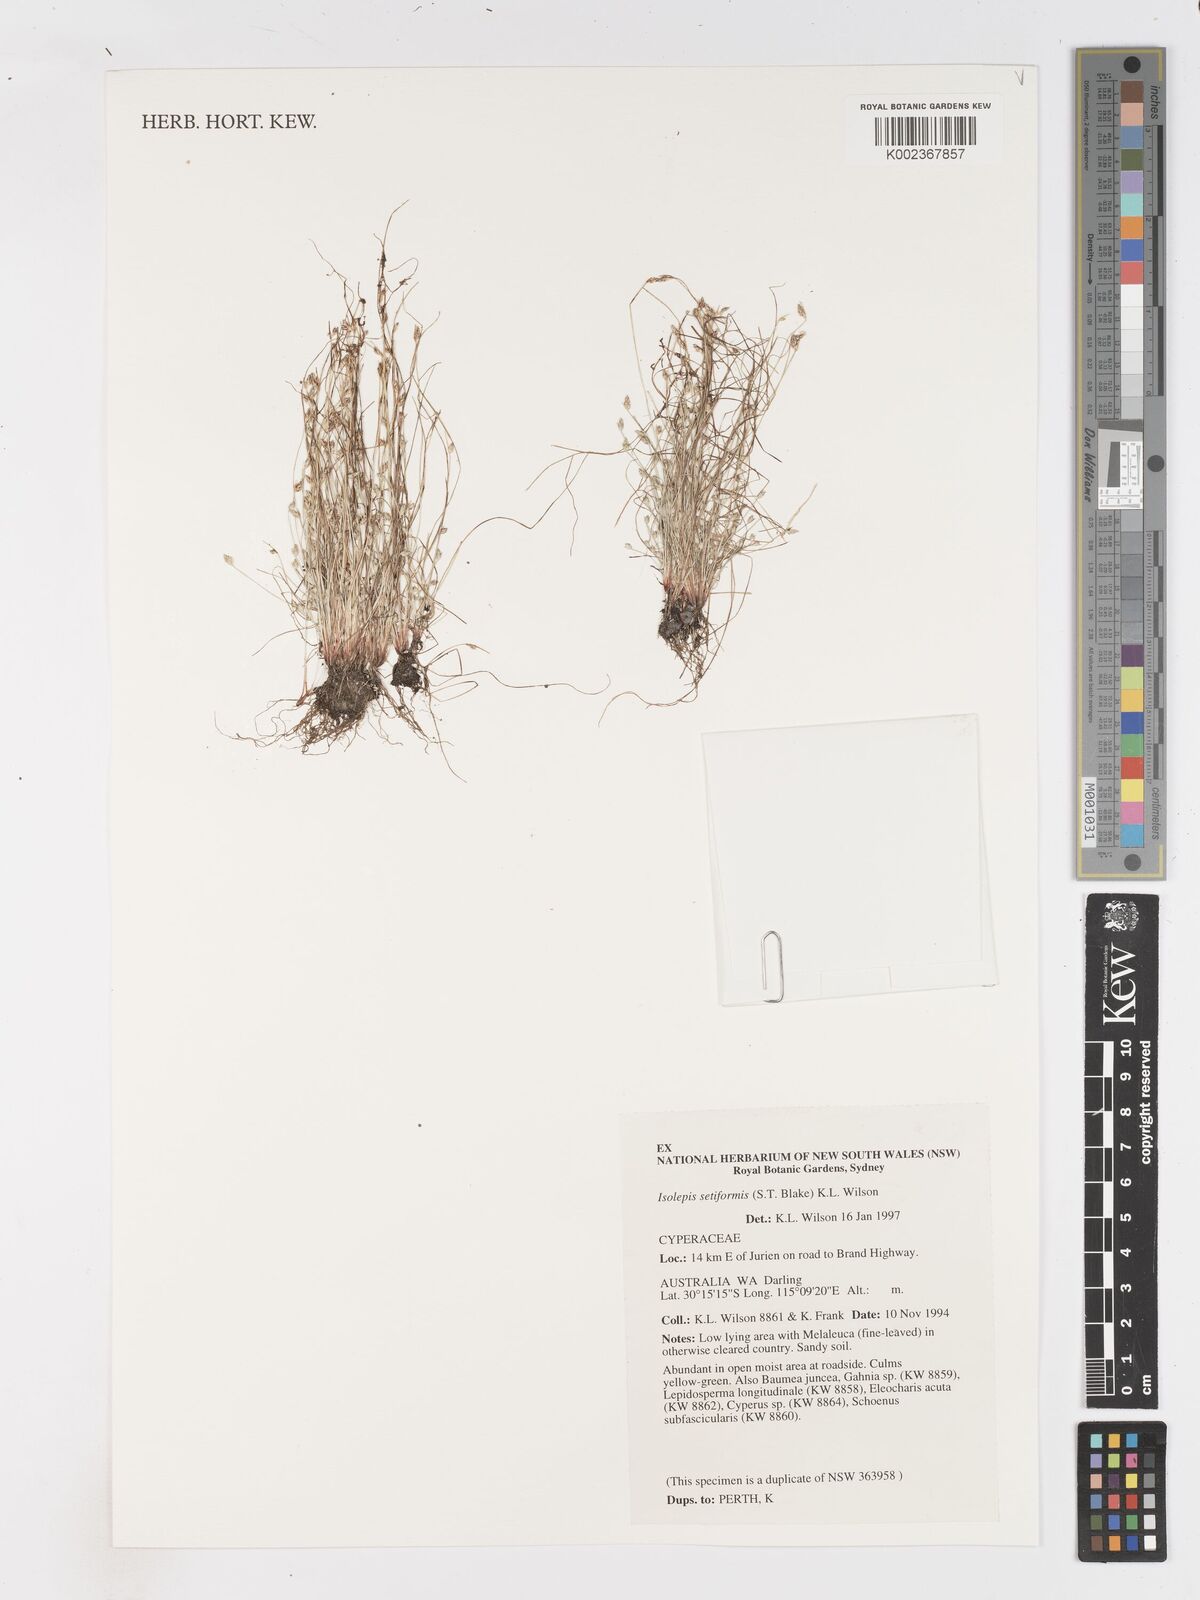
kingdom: Plantae
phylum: Tracheophyta
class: Liliopsida
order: Poales
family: Cyperaceae
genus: Isolepis
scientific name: Isolepis cernua
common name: Slender club-rush
